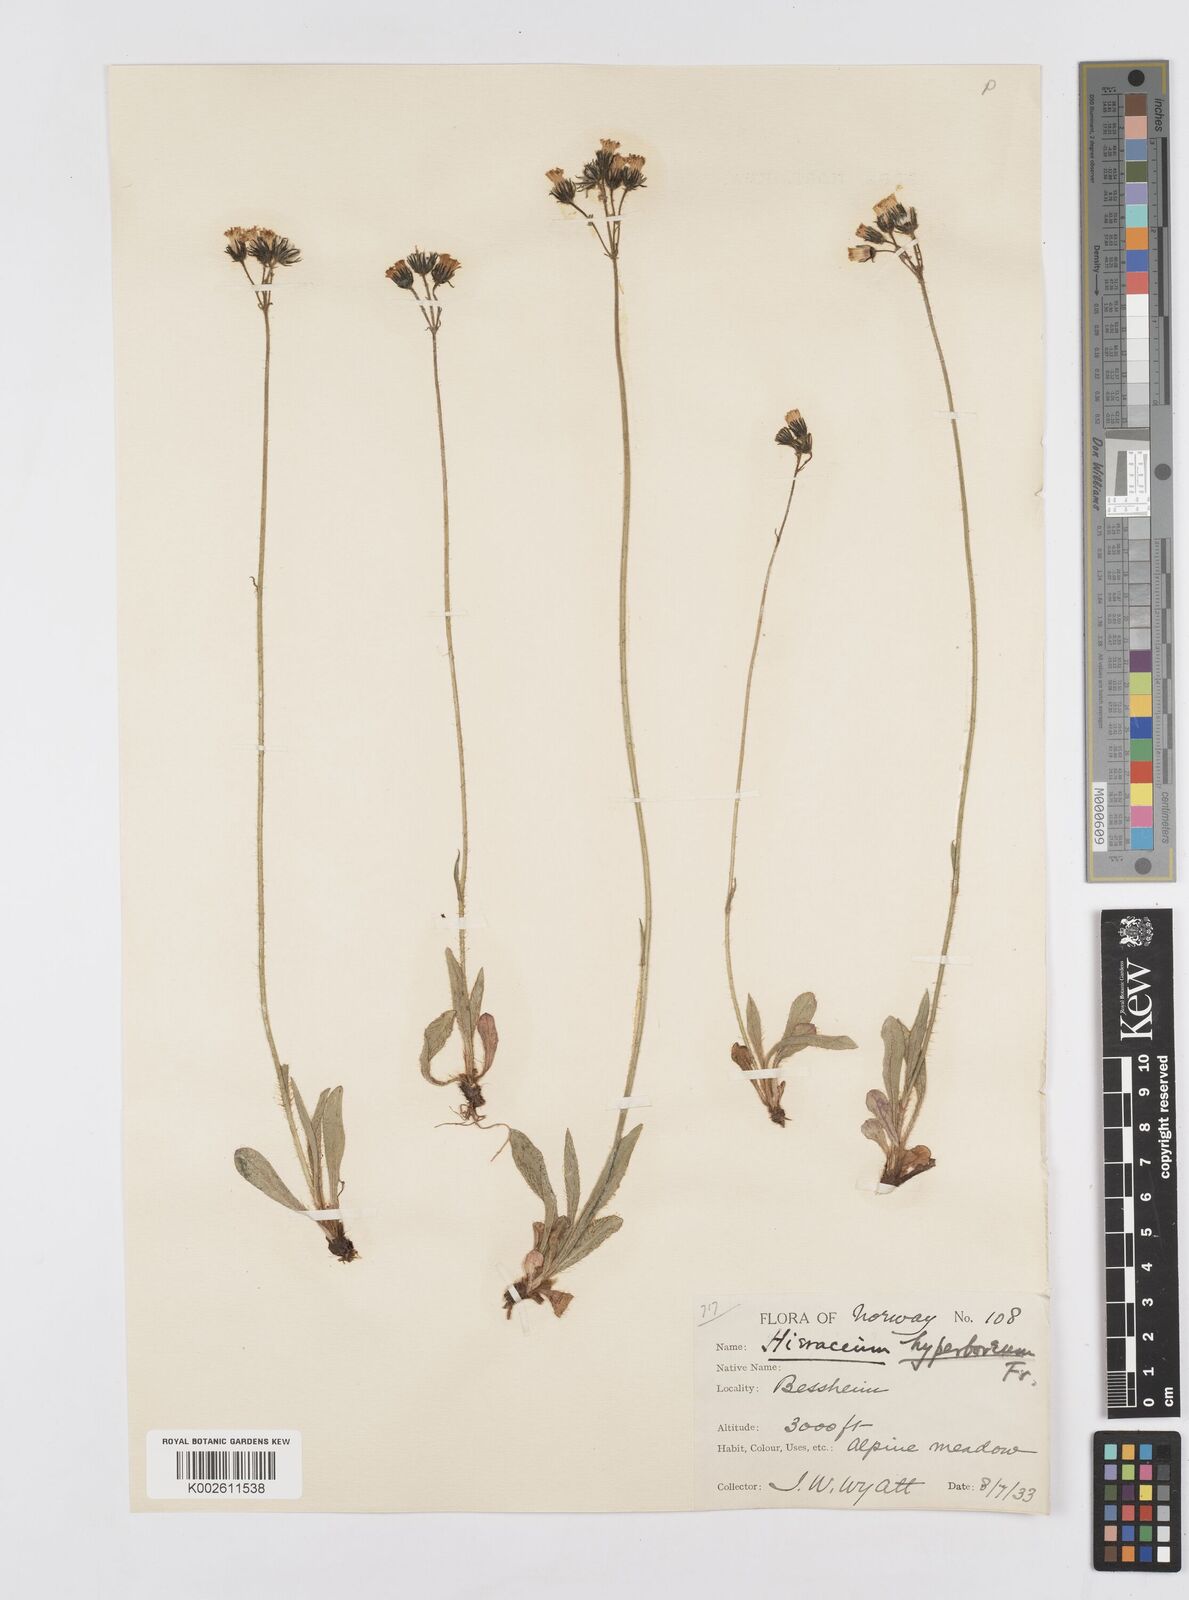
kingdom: Plantae
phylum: Tracheophyta
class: Magnoliopsida
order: Asterales
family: Asteraceae
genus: Pilosella
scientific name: Pilosella hyperborea
